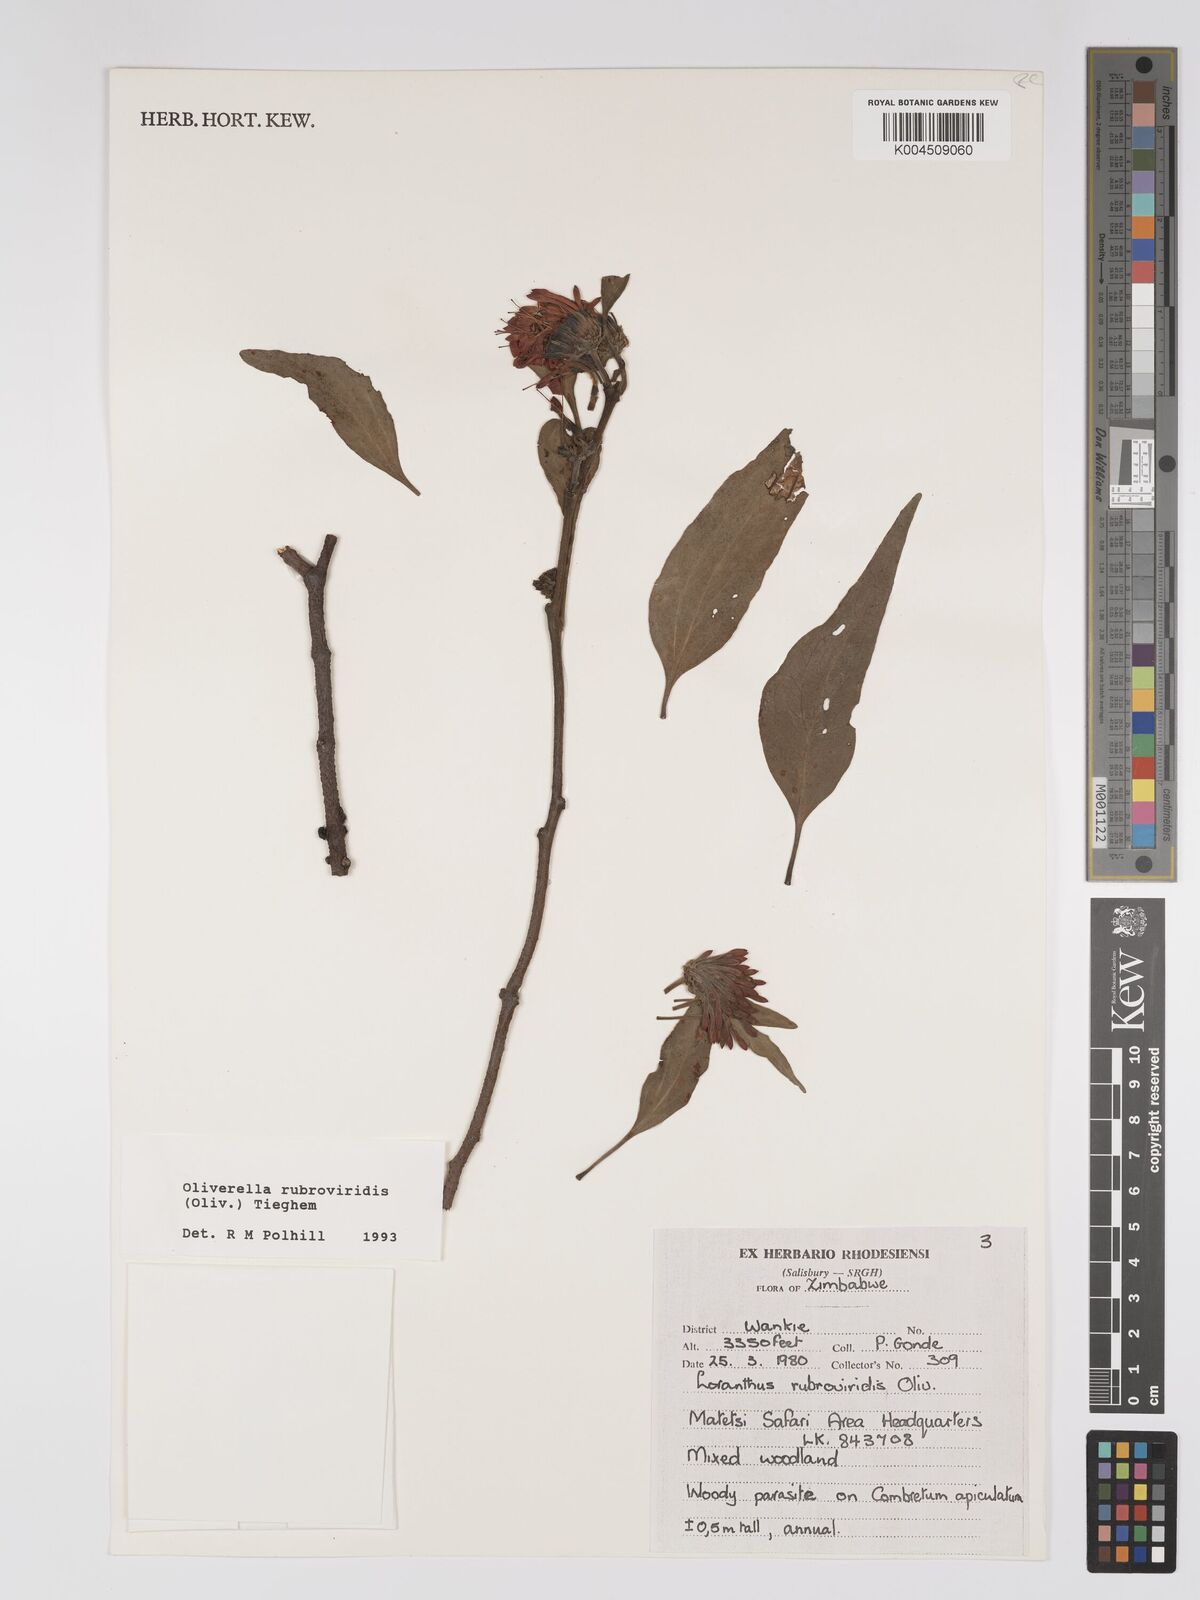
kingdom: Plantae
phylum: Tracheophyta
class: Magnoliopsida
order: Santalales
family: Loranthaceae
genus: Oliverella
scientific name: Oliverella rubroviridis
